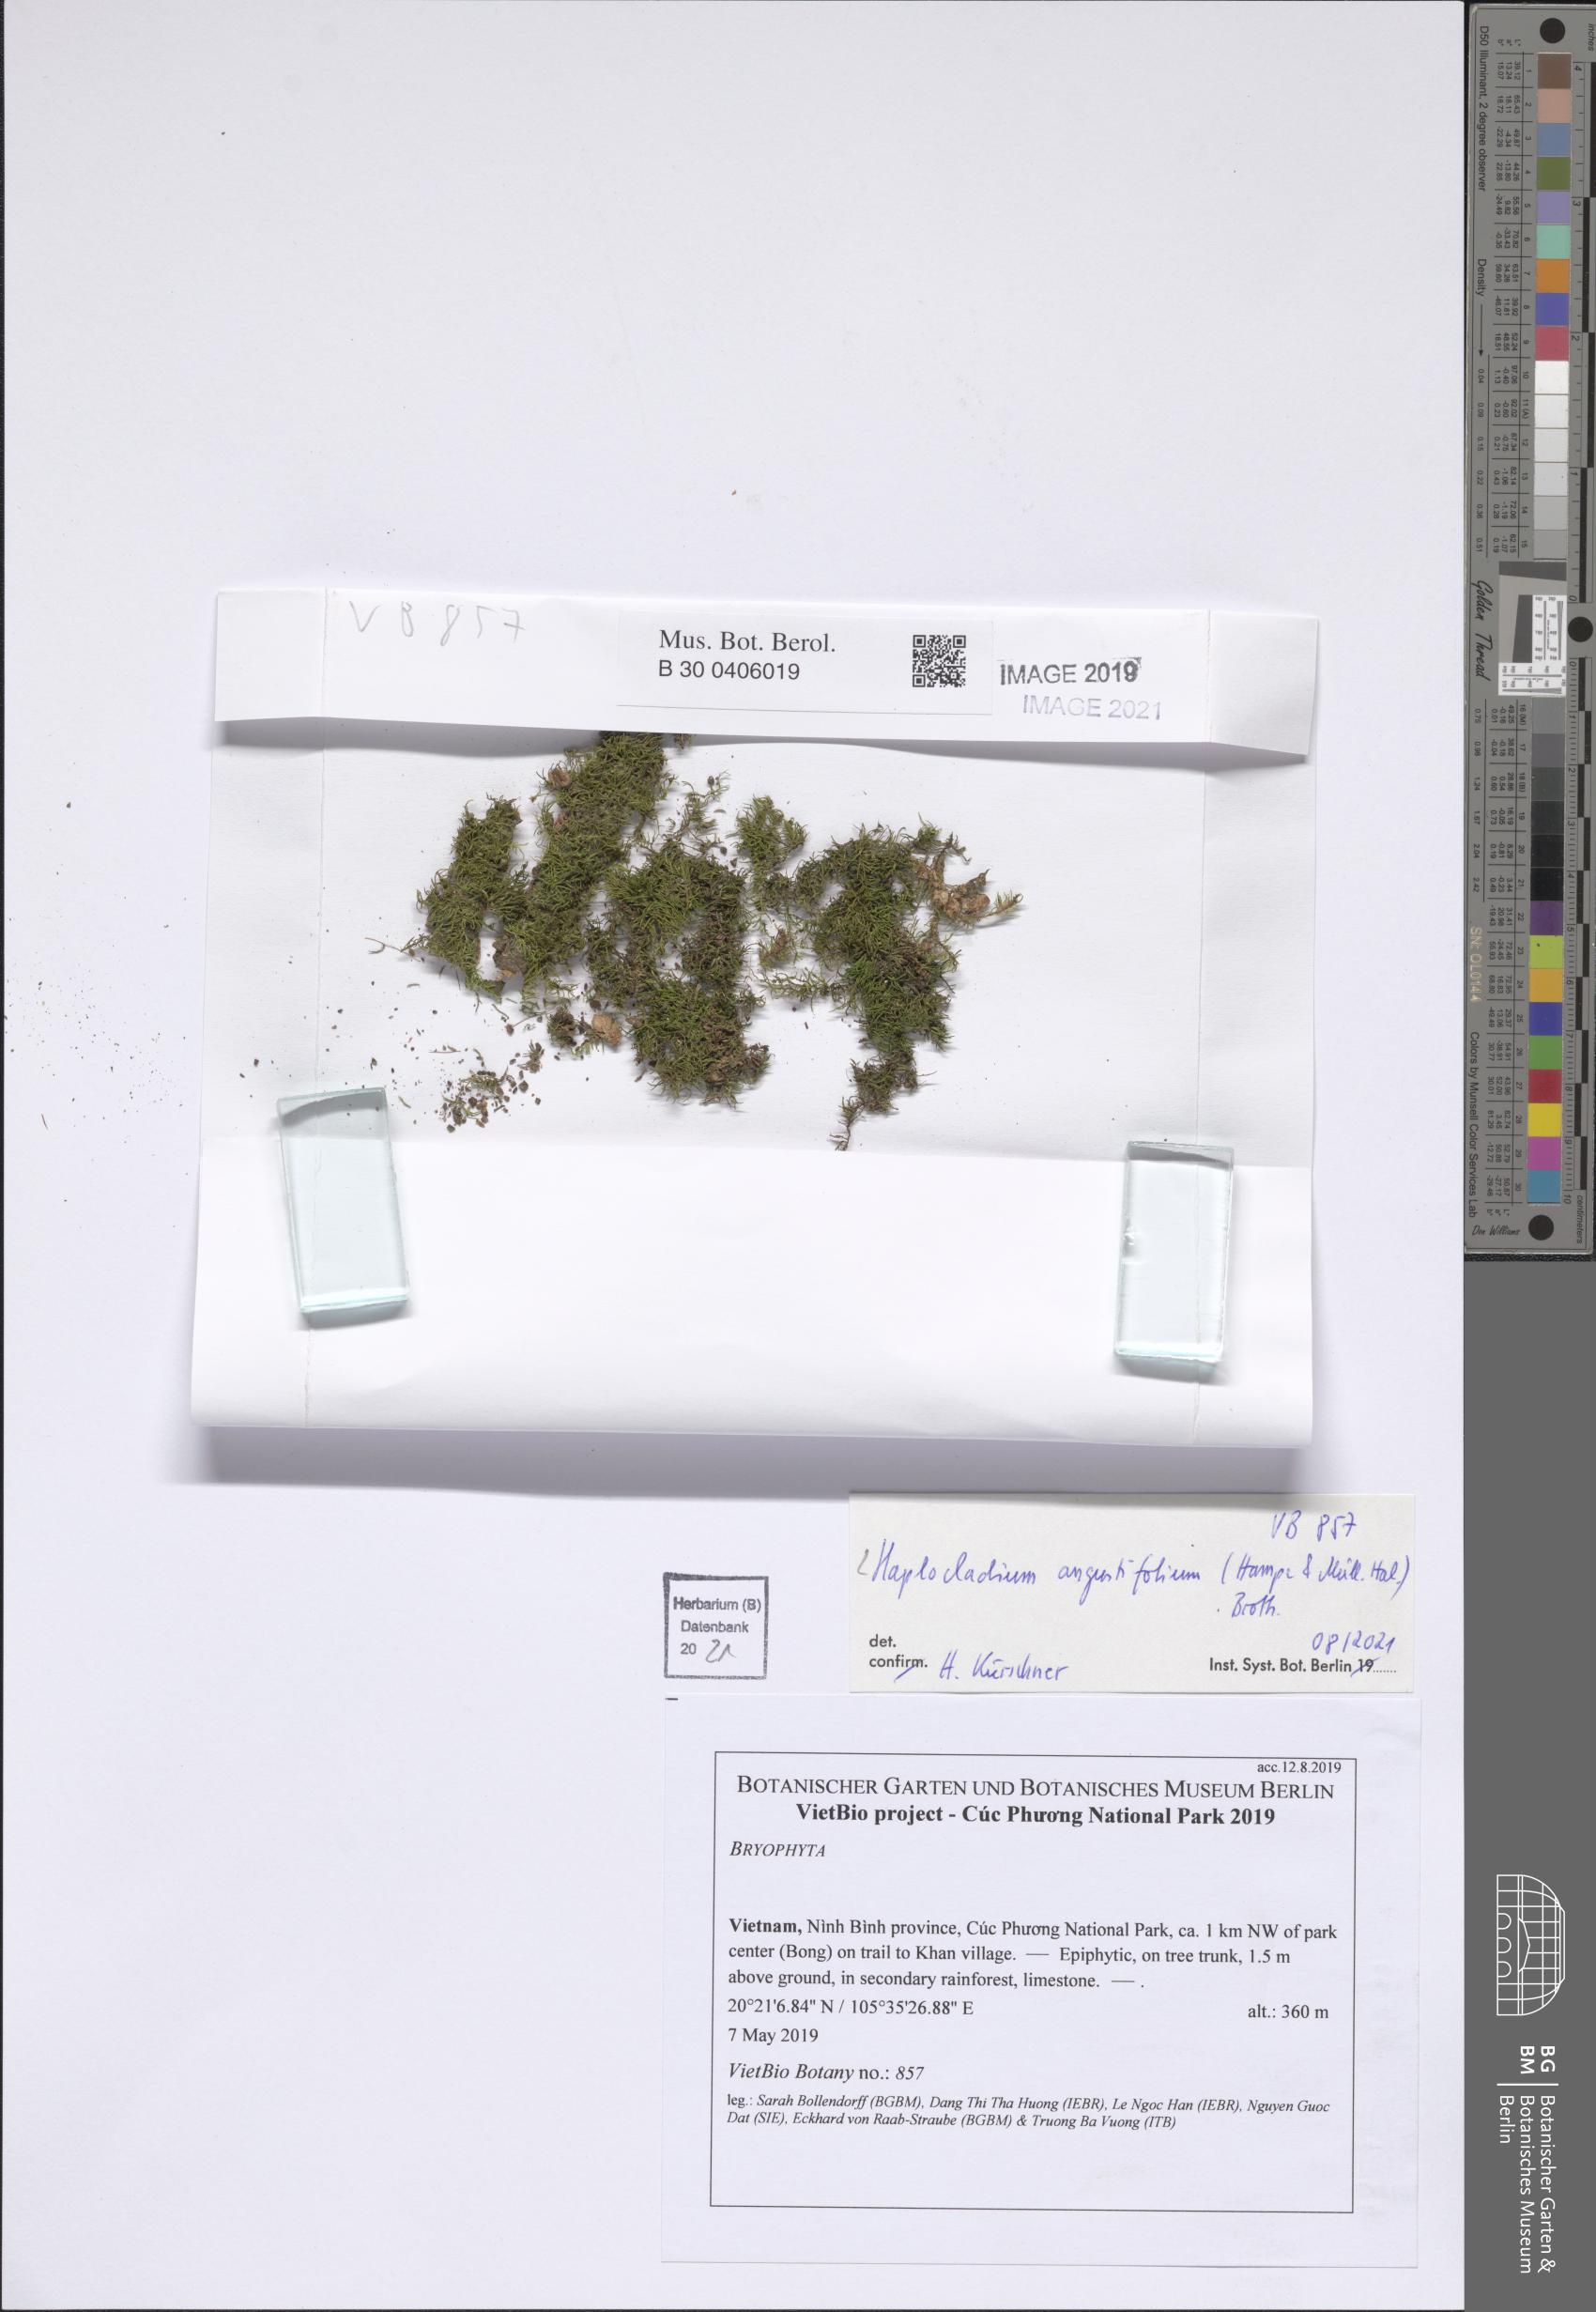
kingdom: Plantae
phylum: Bryophyta
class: Bryopsida
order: Hypnales
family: Leskeaceae
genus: Haplocladium
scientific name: Haplocladium angustifolium
